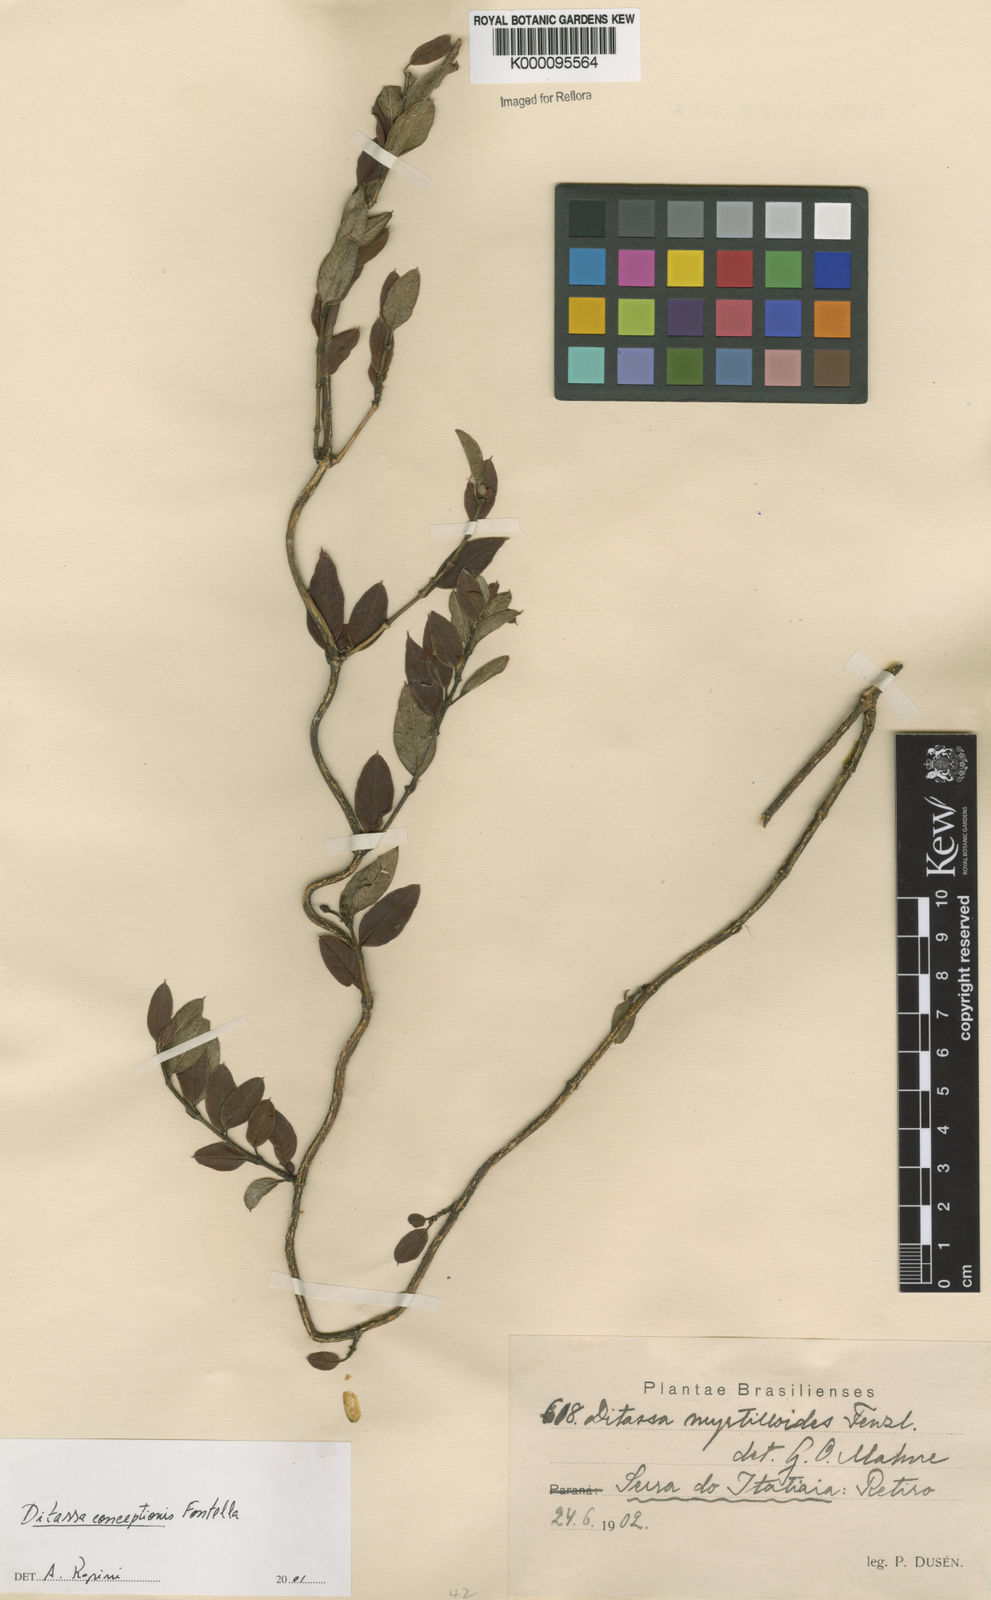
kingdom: Plantae
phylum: Tracheophyta
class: Magnoliopsida
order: Gentianales
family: Apocynaceae
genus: Ditassa
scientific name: Ditassa conceptionis
